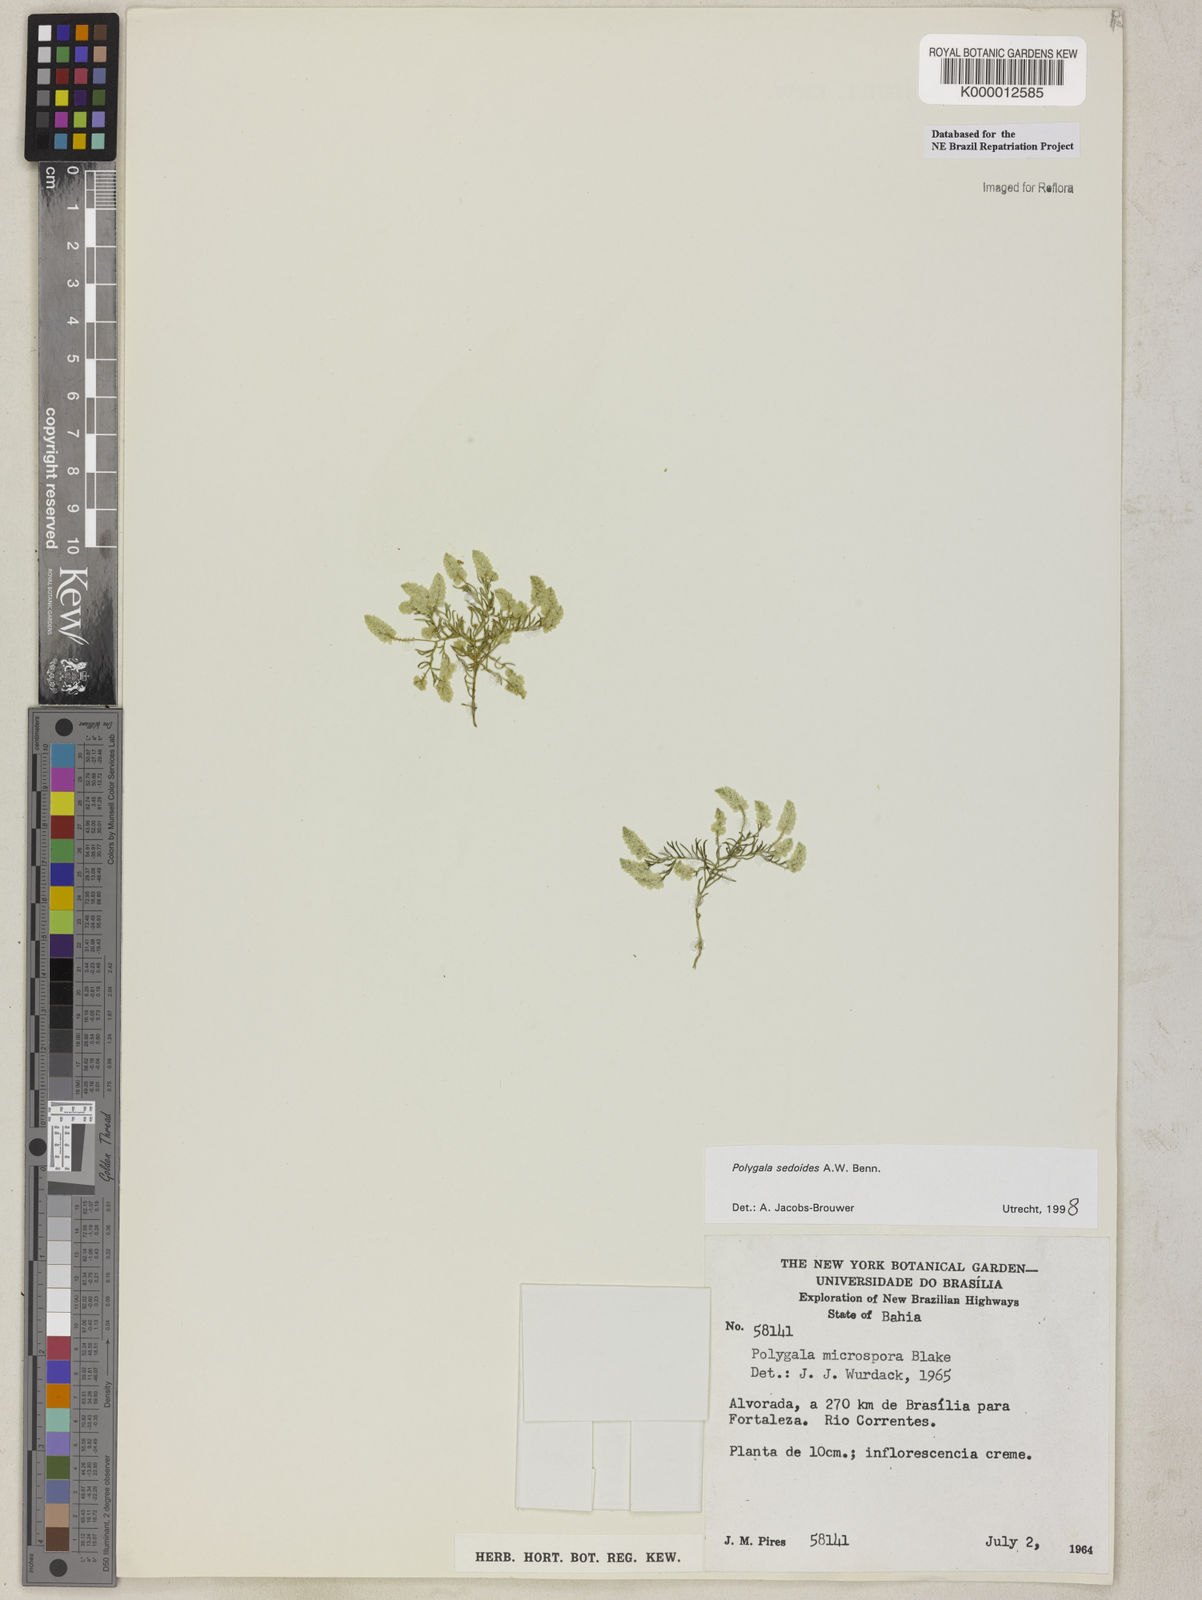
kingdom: Plantae
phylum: Tracheophyta
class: Magnoliopsida
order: Fabales
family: Polygalaceae
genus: Polygala
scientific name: Polygala sedoides
